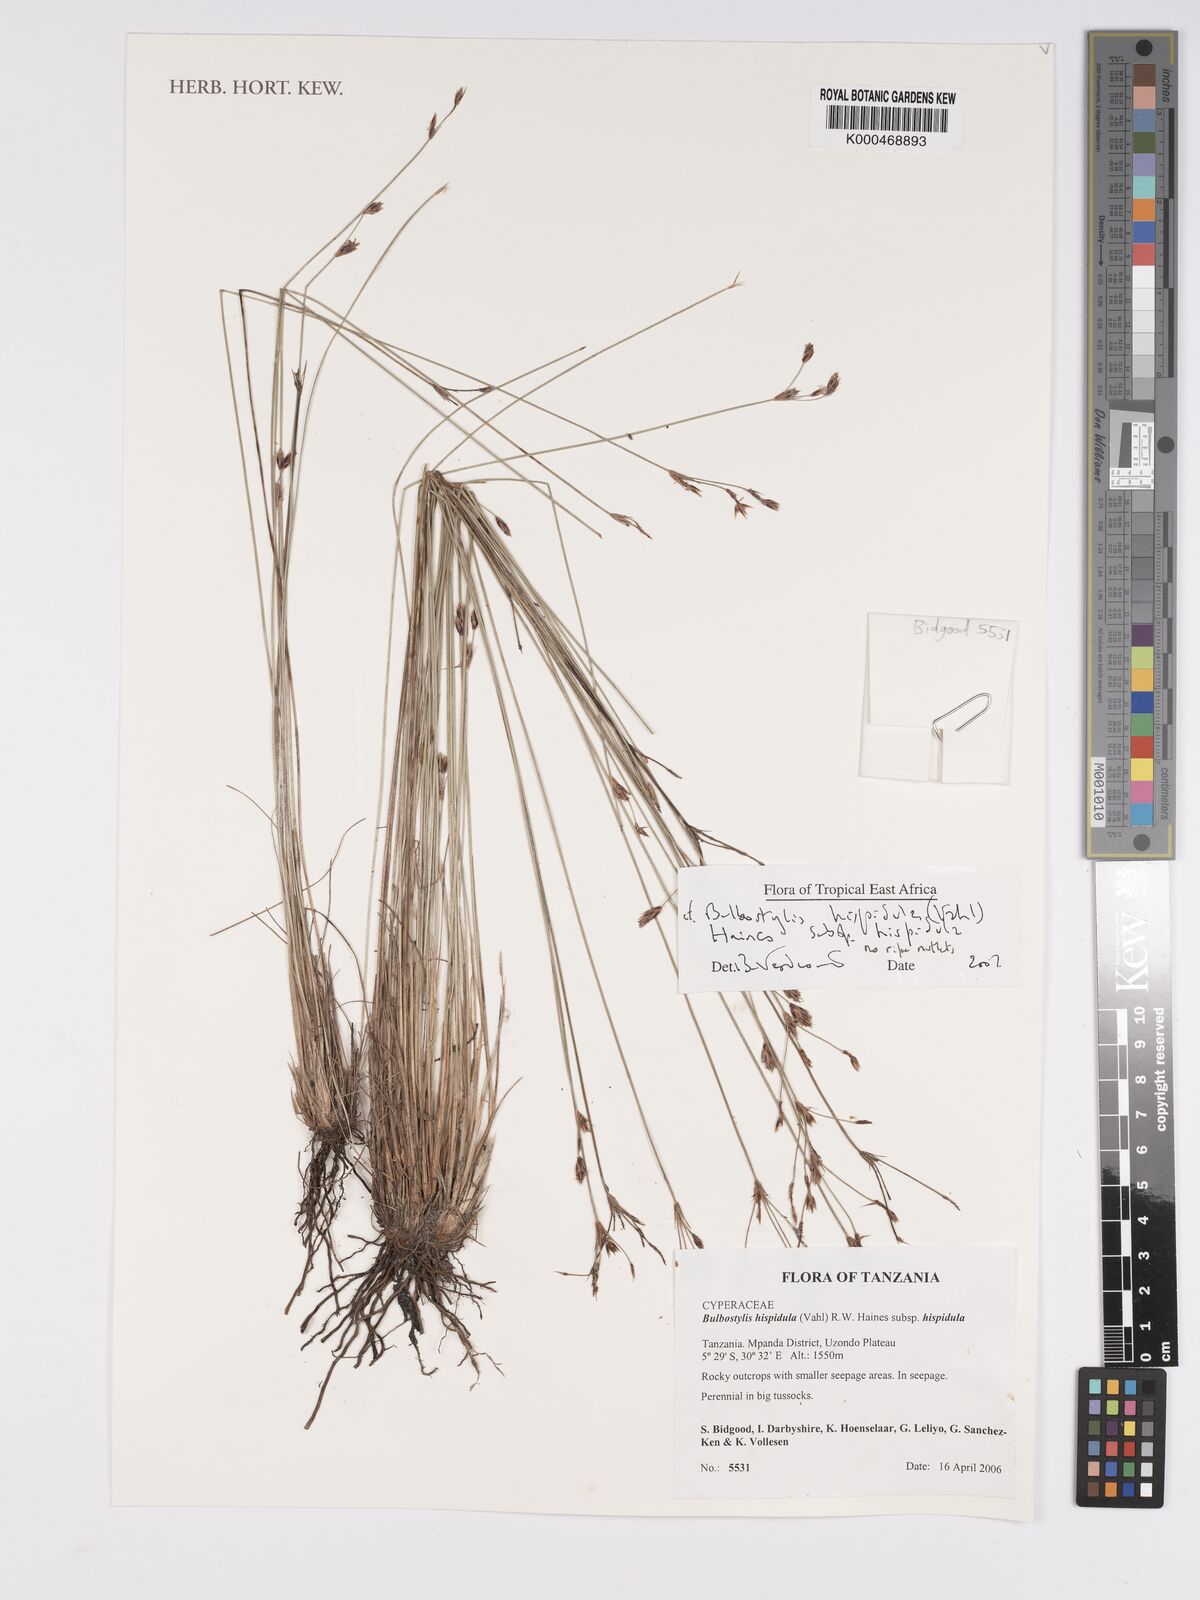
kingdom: Plantae
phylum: Tracheophyta
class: Liliopsida
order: Poales
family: Cyperaceae
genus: Bulbostylis
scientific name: Bulbostylis hispidula
